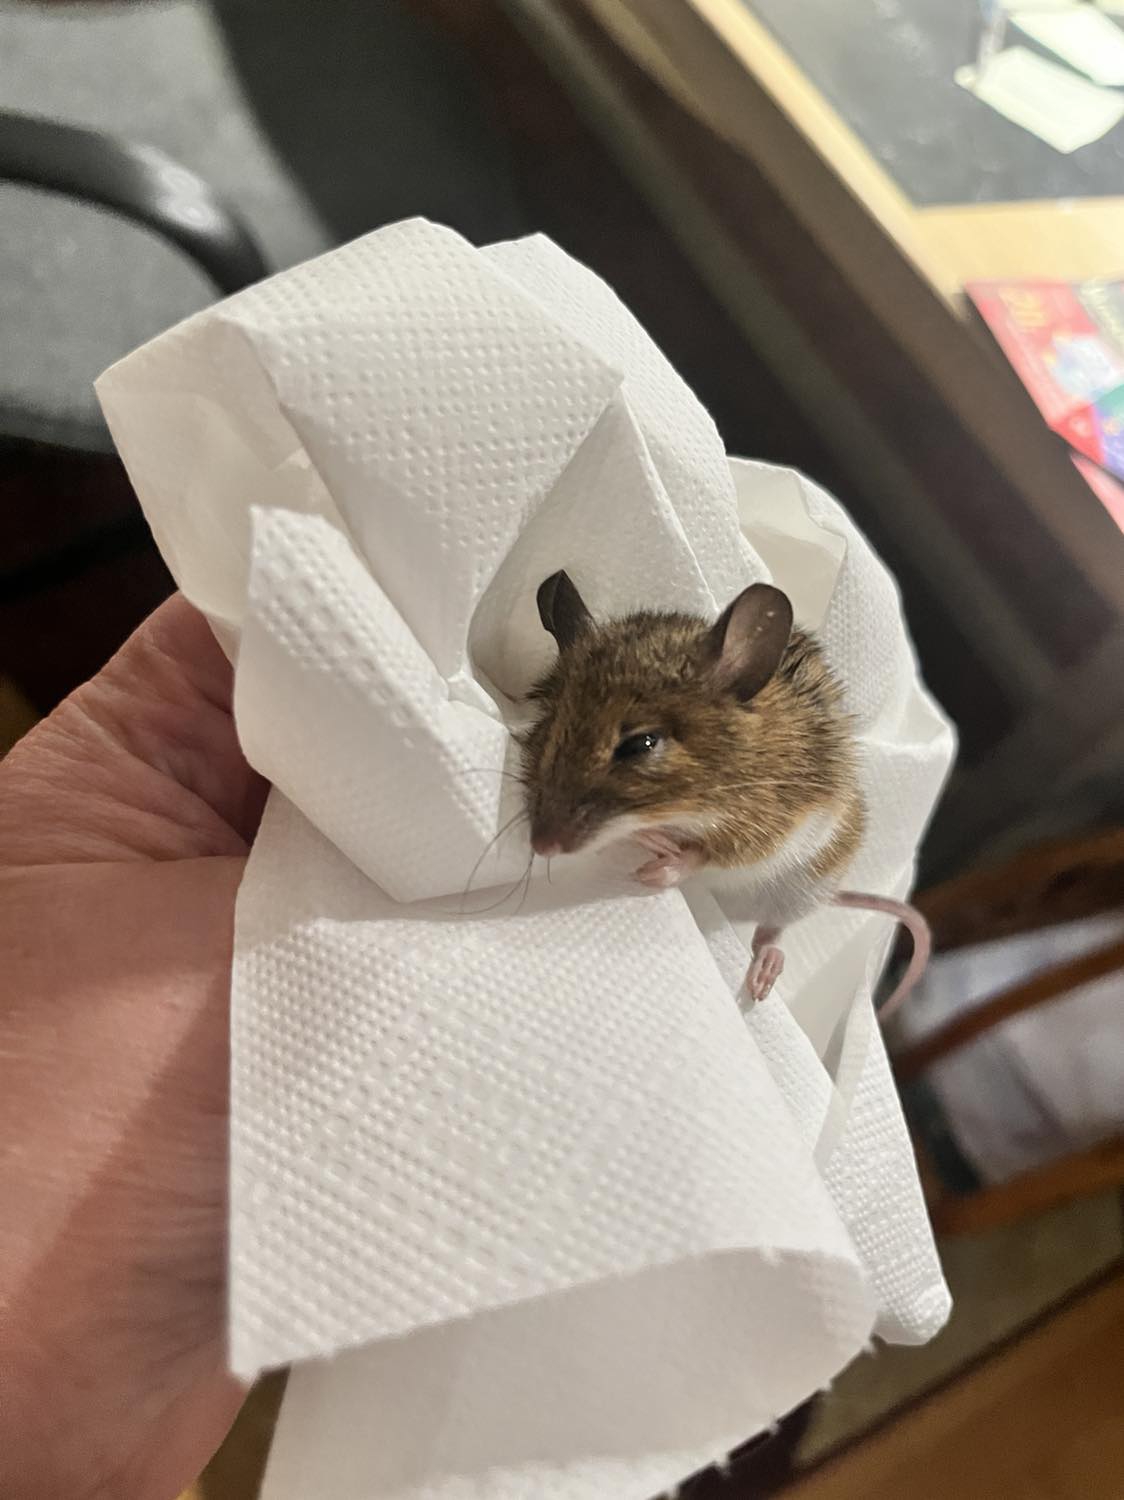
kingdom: Animalia
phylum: Chordata
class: Mammalia
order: Rodentia
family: Muridae
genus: Apodemus
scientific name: Apodemus flavicollis
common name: Halsbåndmus
